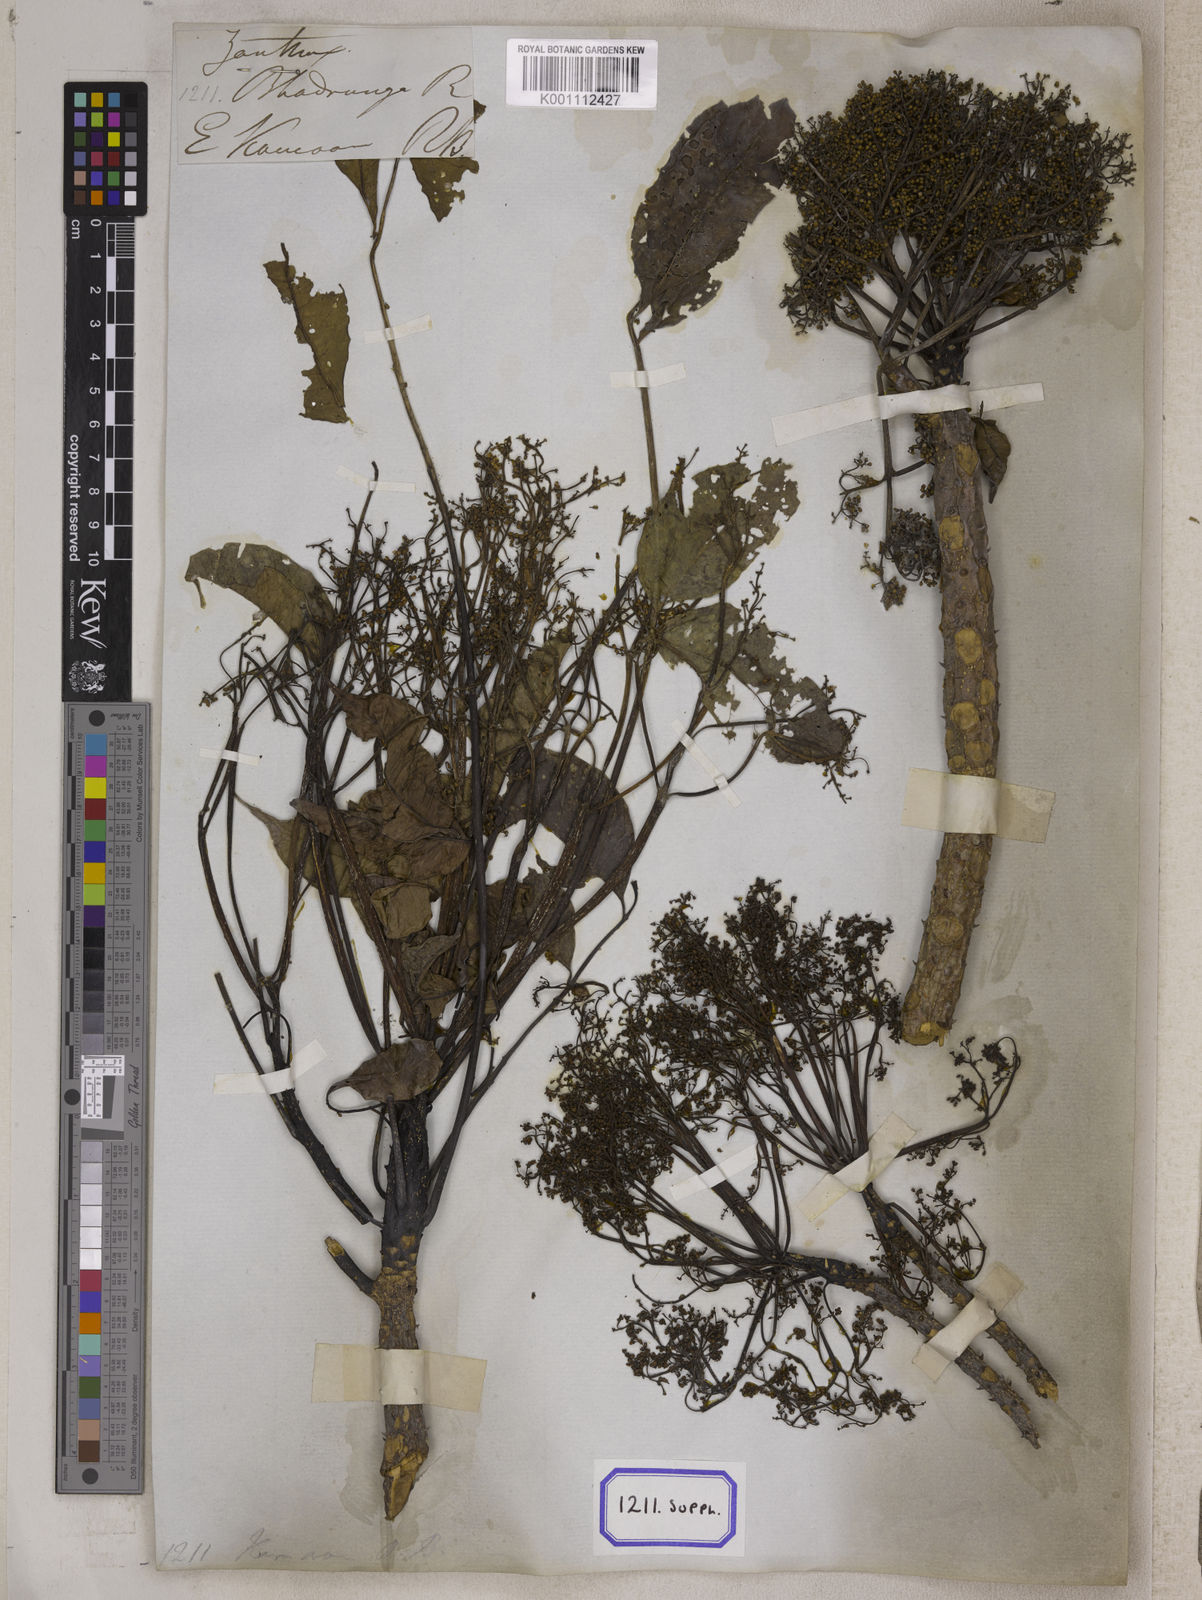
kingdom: Plantae
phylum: Tracheophyta
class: Magnoliopsida
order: Sapindales
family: Rutaceae
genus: Zanthoxylum
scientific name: Zanthoxylum rhetsa
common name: Indian ivy-rue
